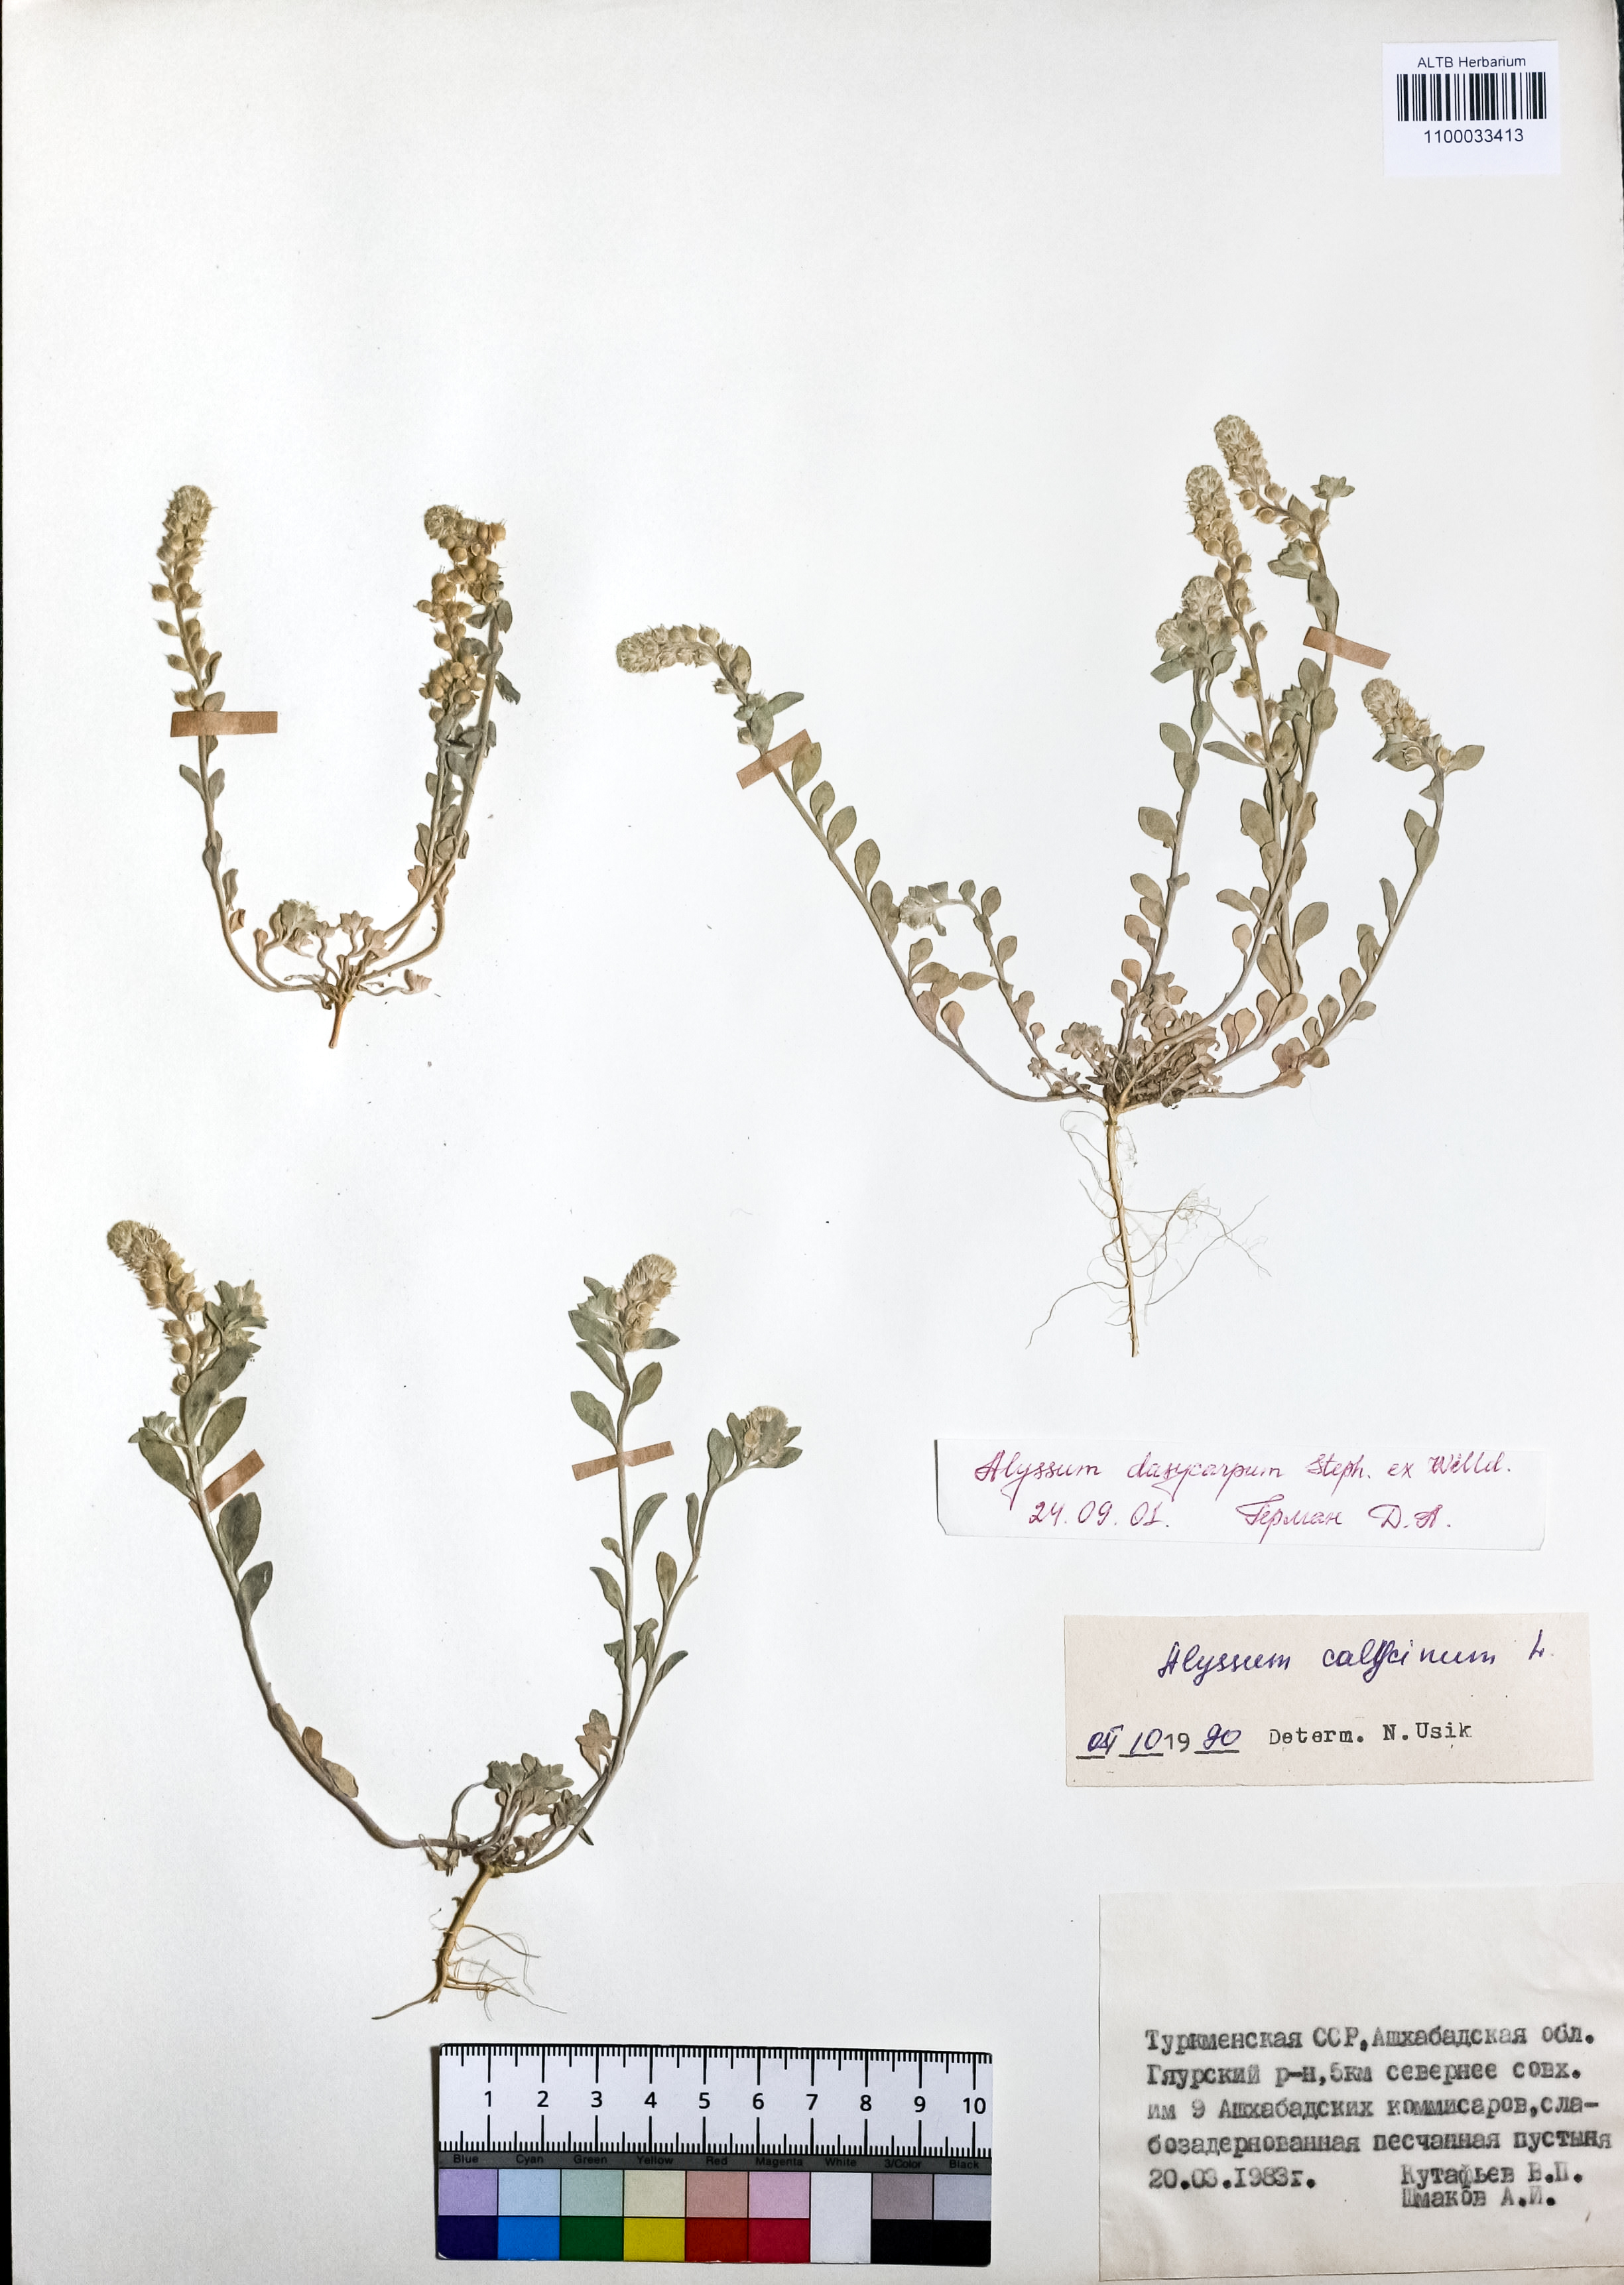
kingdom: Plantae
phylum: Tracheophyta
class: Magnoliopsida
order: Brassicales
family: Brassicaceae
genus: Alyssum
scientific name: Alyssum dasycarpum
